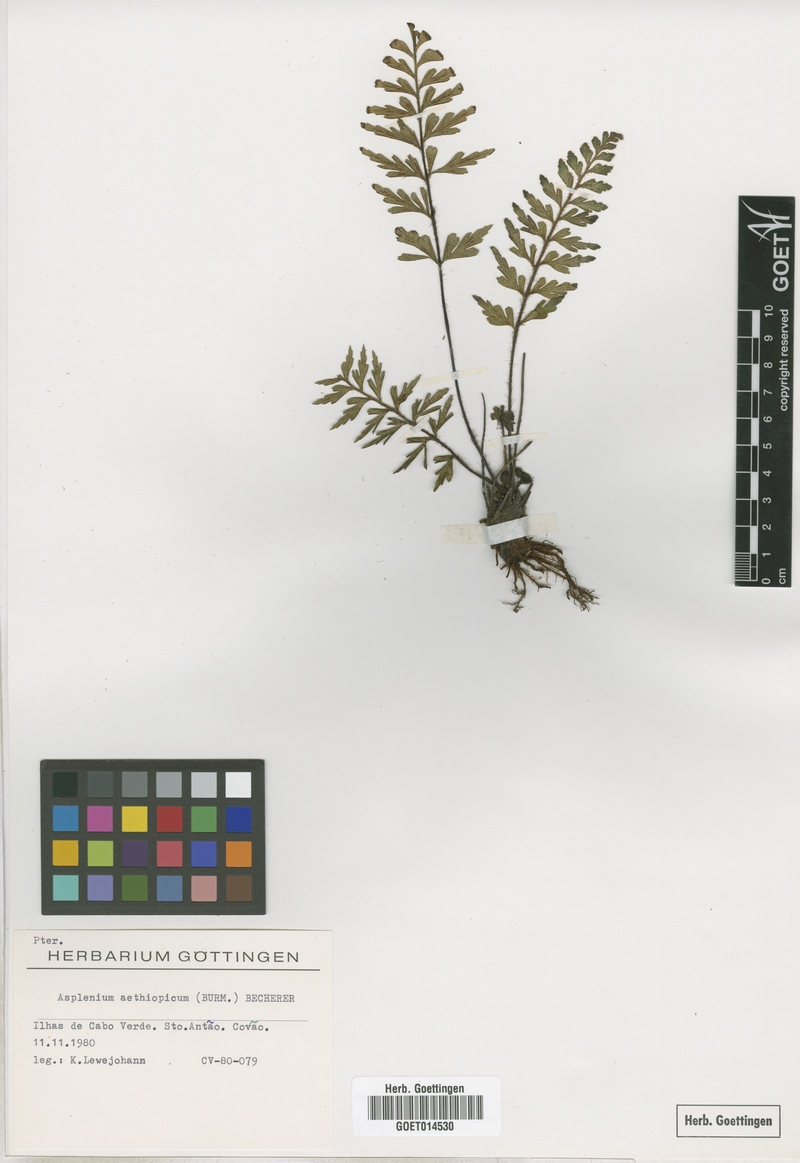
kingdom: Plantae
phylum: Tracheophyta
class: Polypodiopsida
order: Polypodiales
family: Aspleniaceae
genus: Asplenium
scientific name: Asplenium aethiopicum
